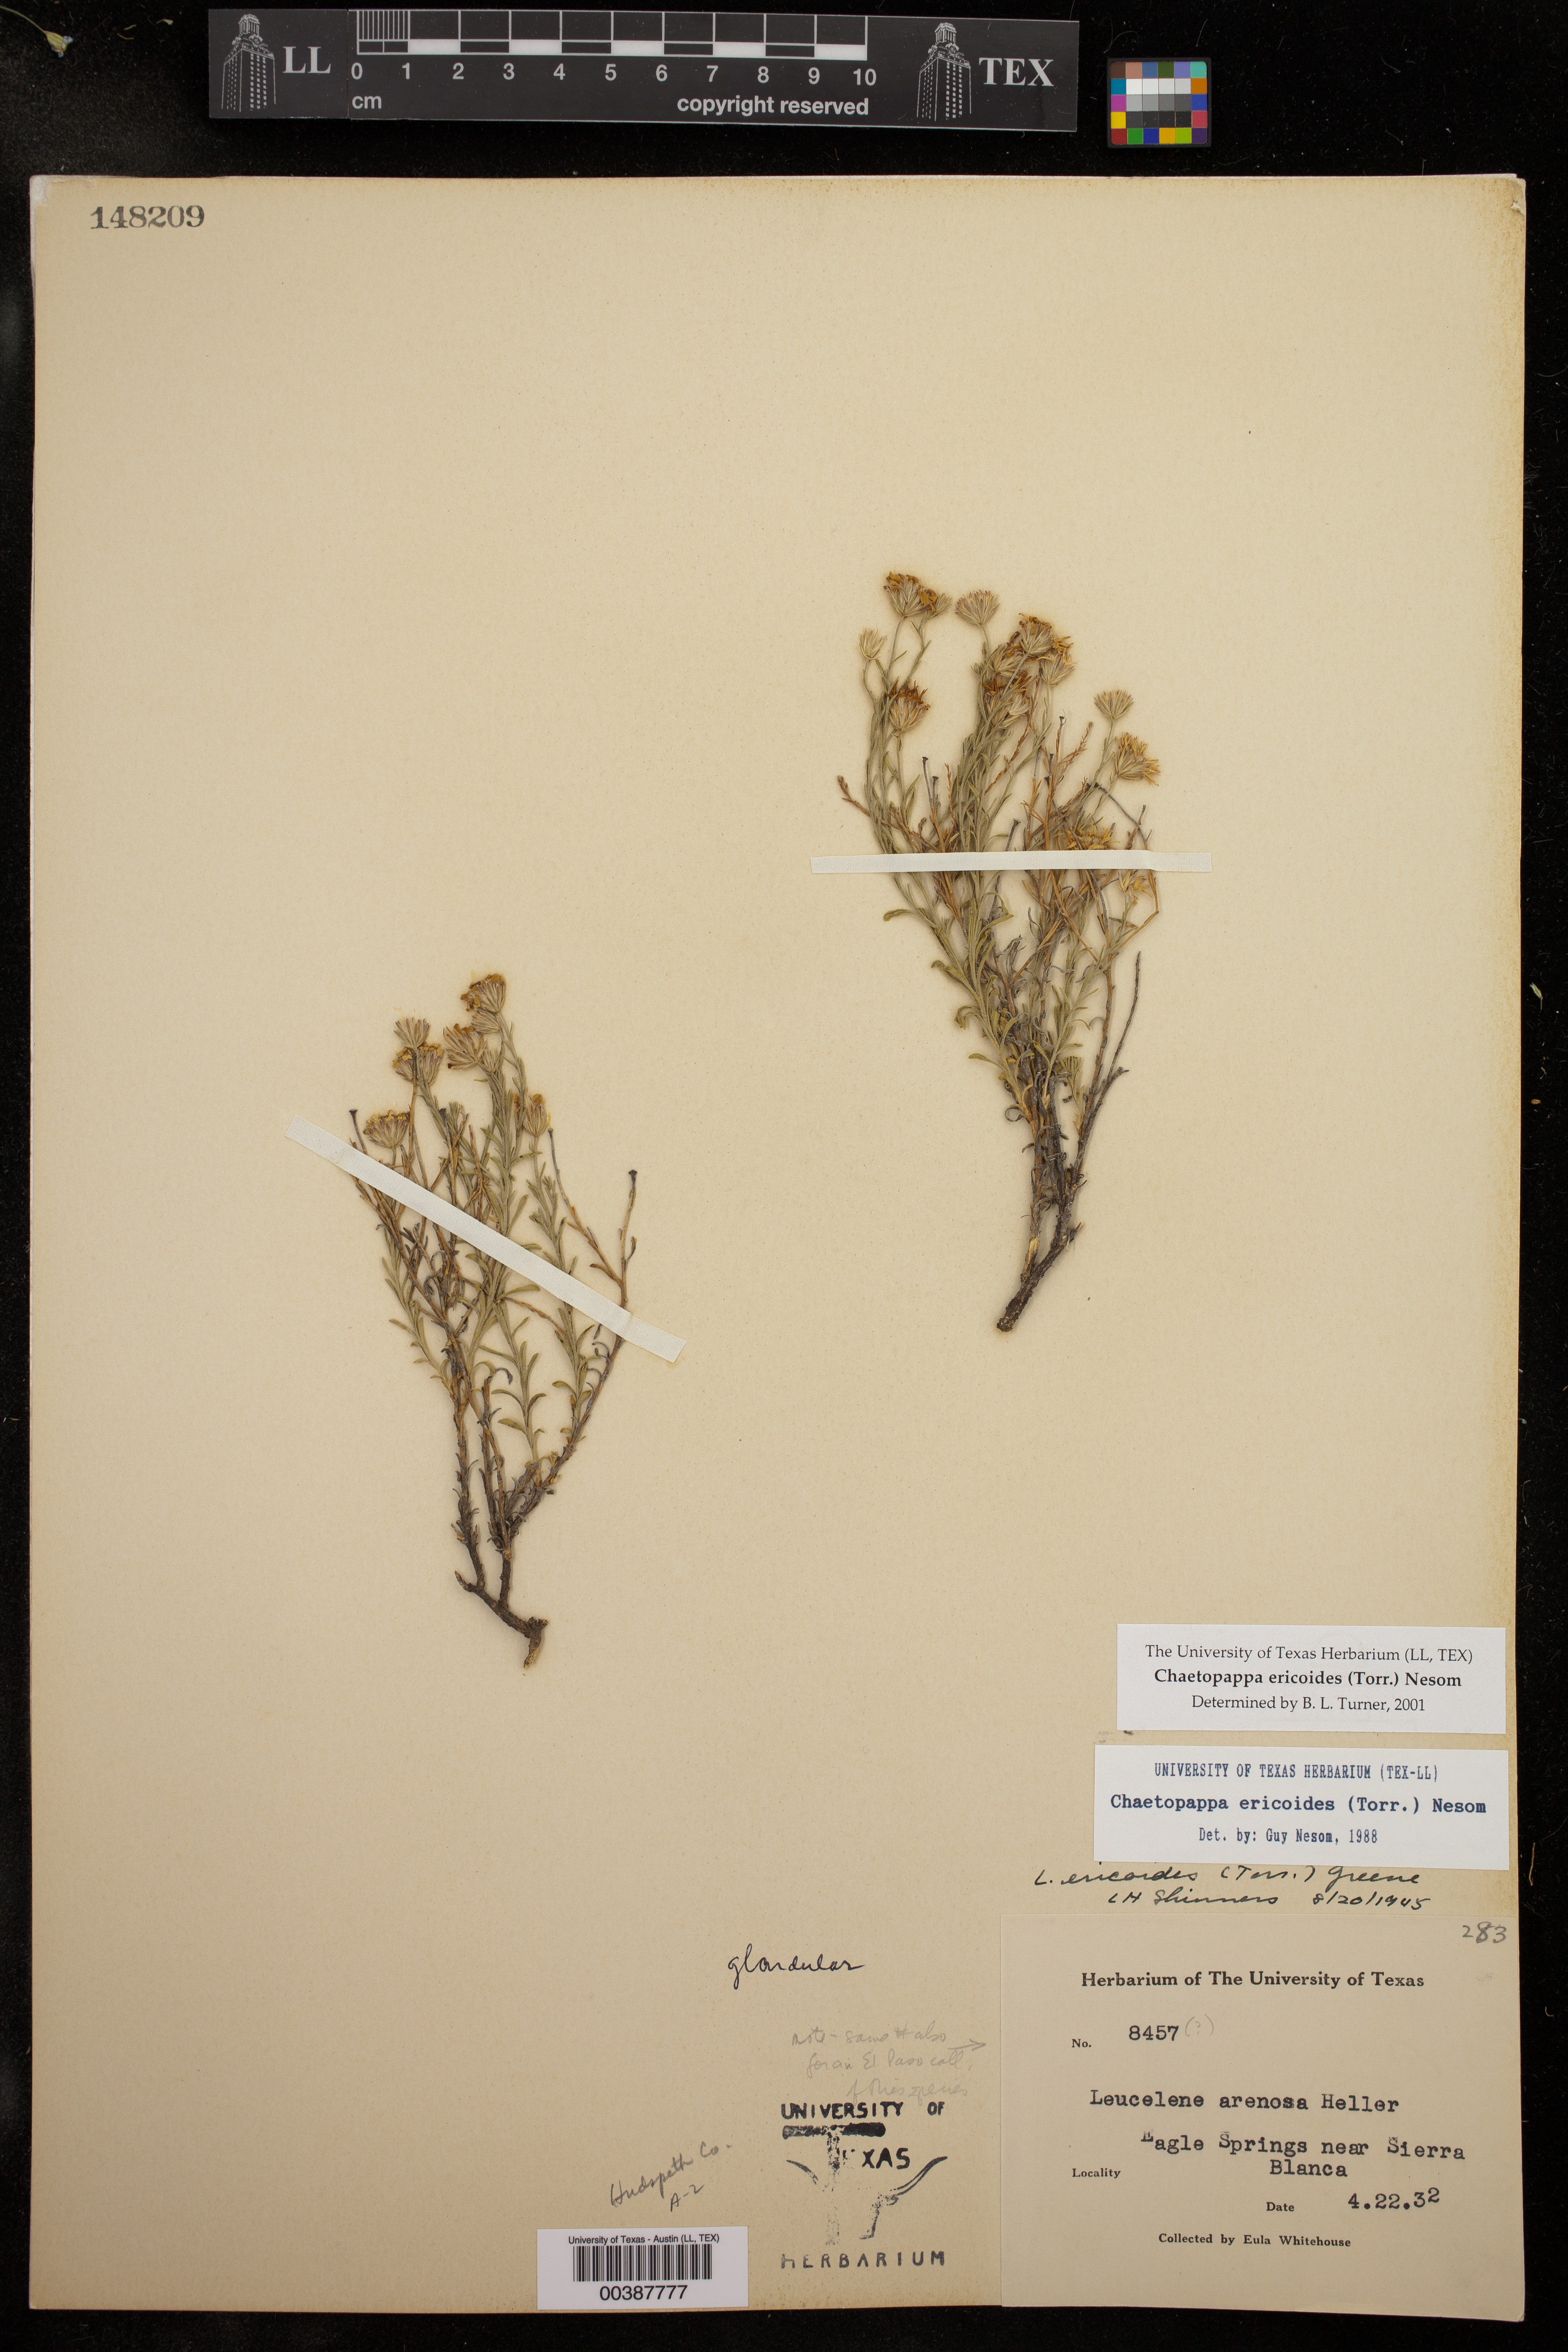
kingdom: Plantae
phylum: Tracheophyta
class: Magnoliopsida
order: Asterales
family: Asteraceae
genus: Chaetopappa
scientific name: Chaetopappa ericoides
